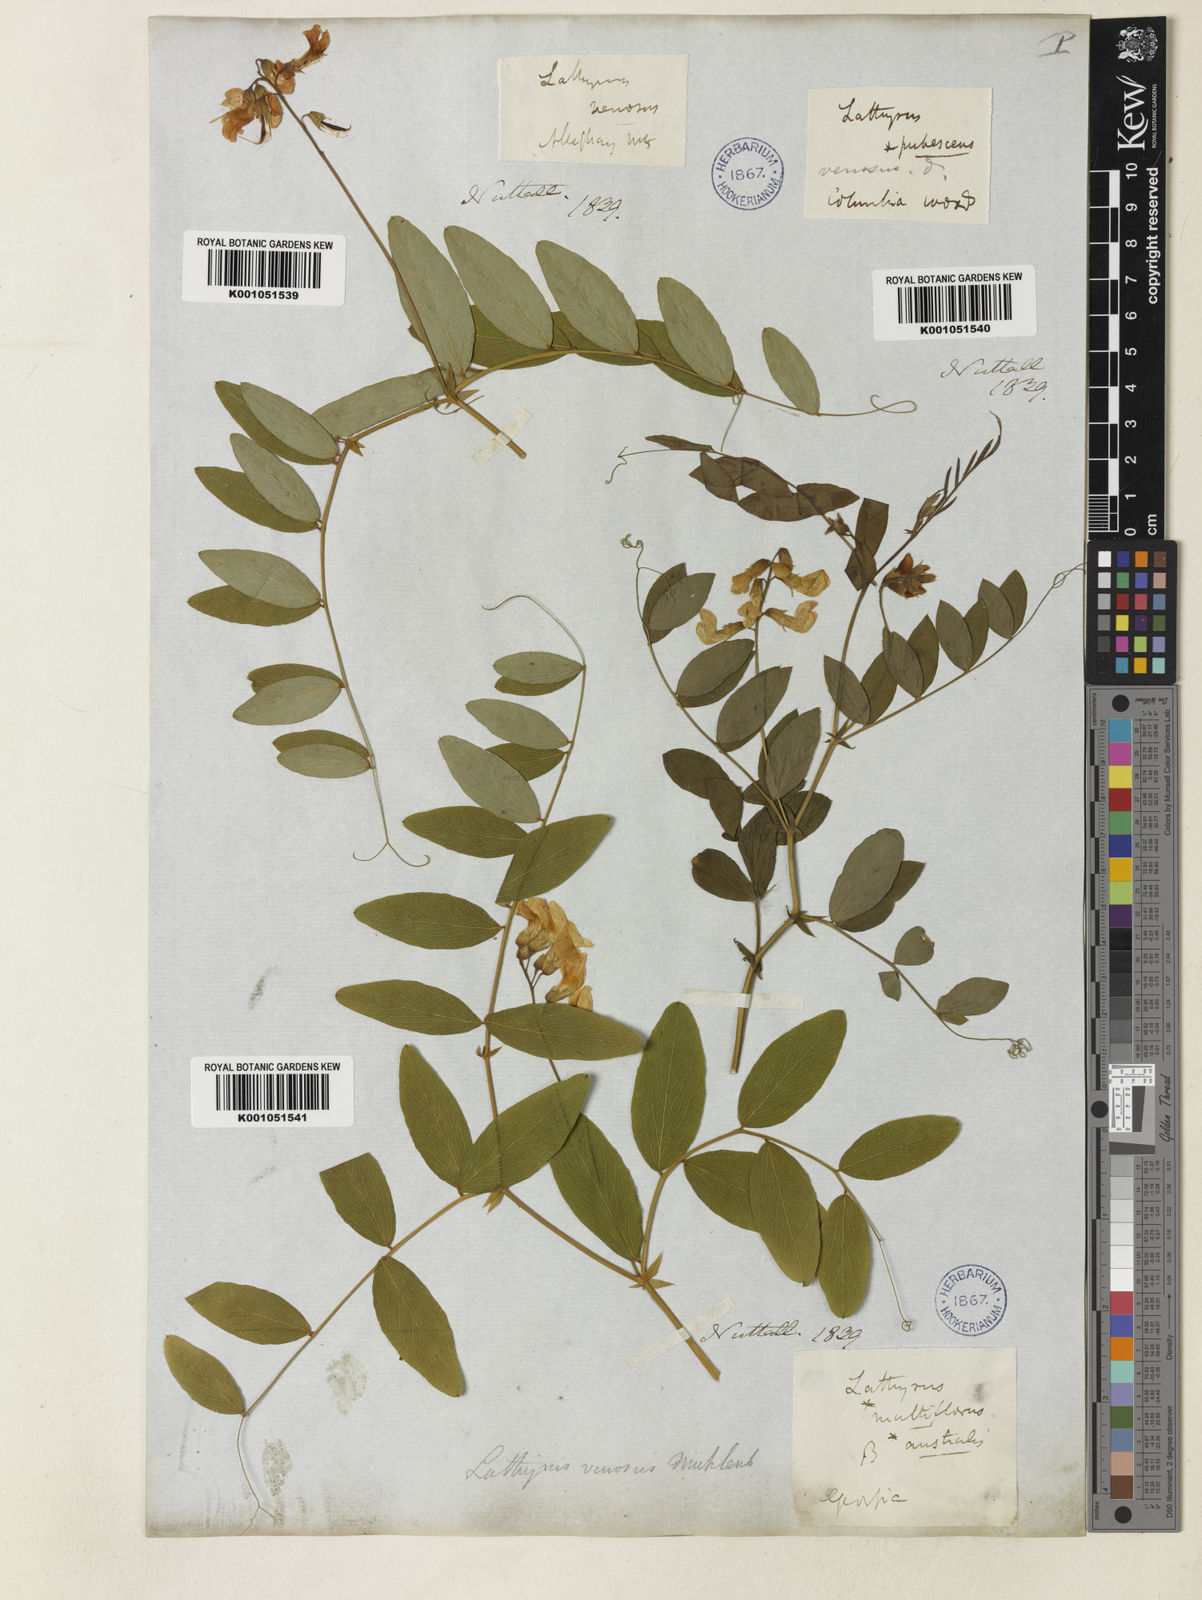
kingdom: Plantae
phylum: Tracheophyta
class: Magnoliopsida
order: Fabales
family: Fabaceae
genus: Lathyrus
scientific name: Lathyrus venosus
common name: Forest-pea
